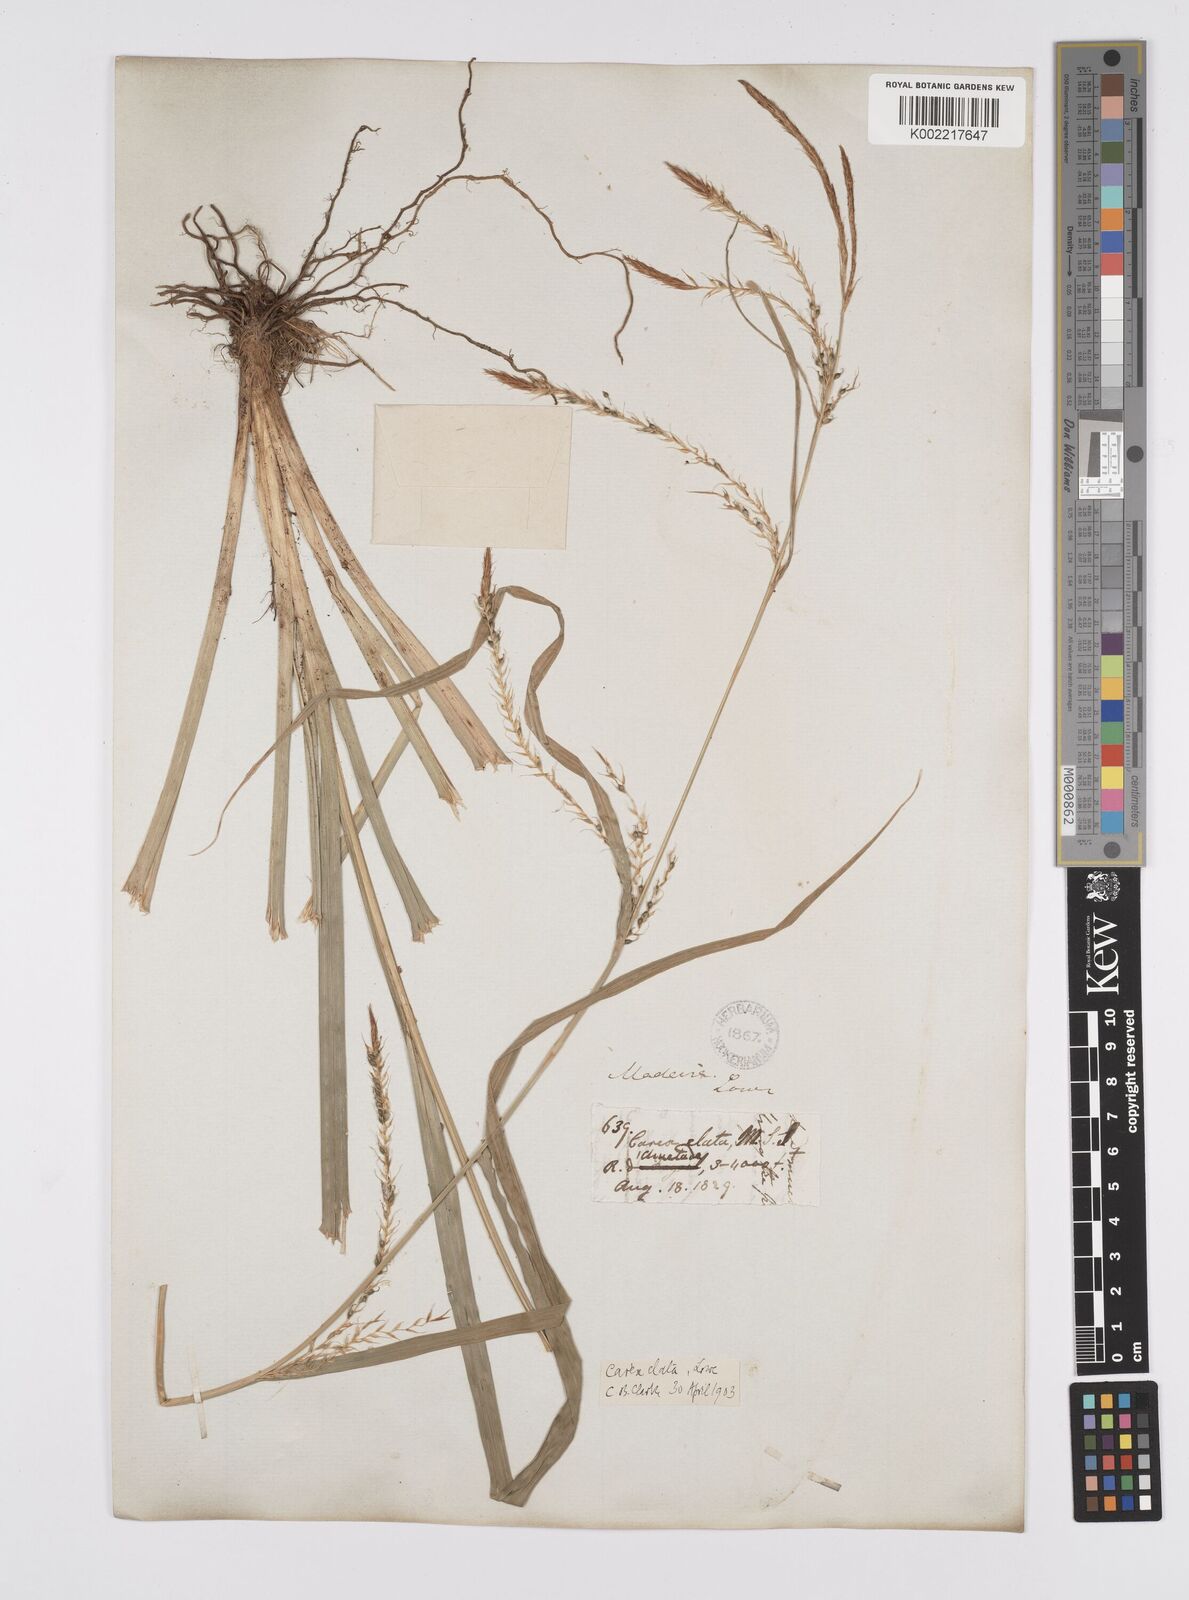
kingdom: Plantae
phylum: Tracheophyta
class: Liliopsida
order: Poales
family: Cyperaceae
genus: Carex
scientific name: Carex lowei
